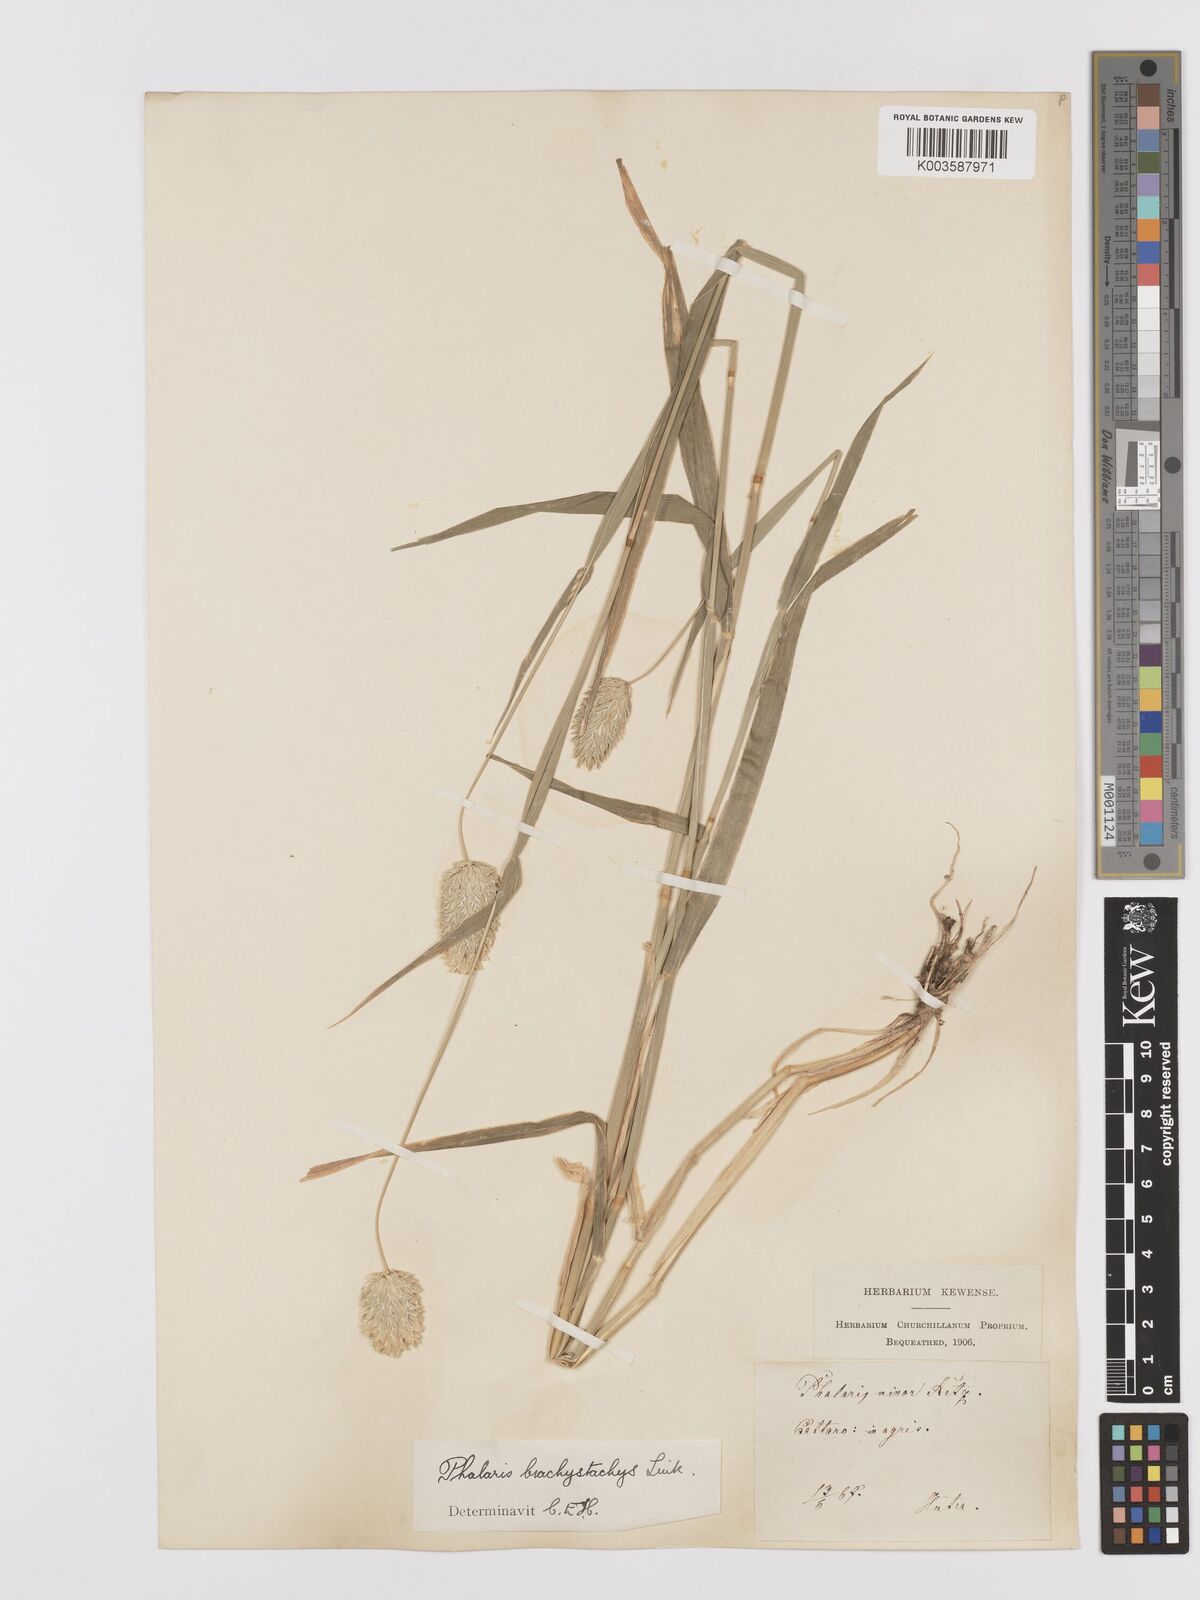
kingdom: Plantae
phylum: Tracheophyta
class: Liliopsida
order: Poales
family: Poaceae
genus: Phalaris
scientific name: Phalaris brachystachys
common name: Confused canary-grass
